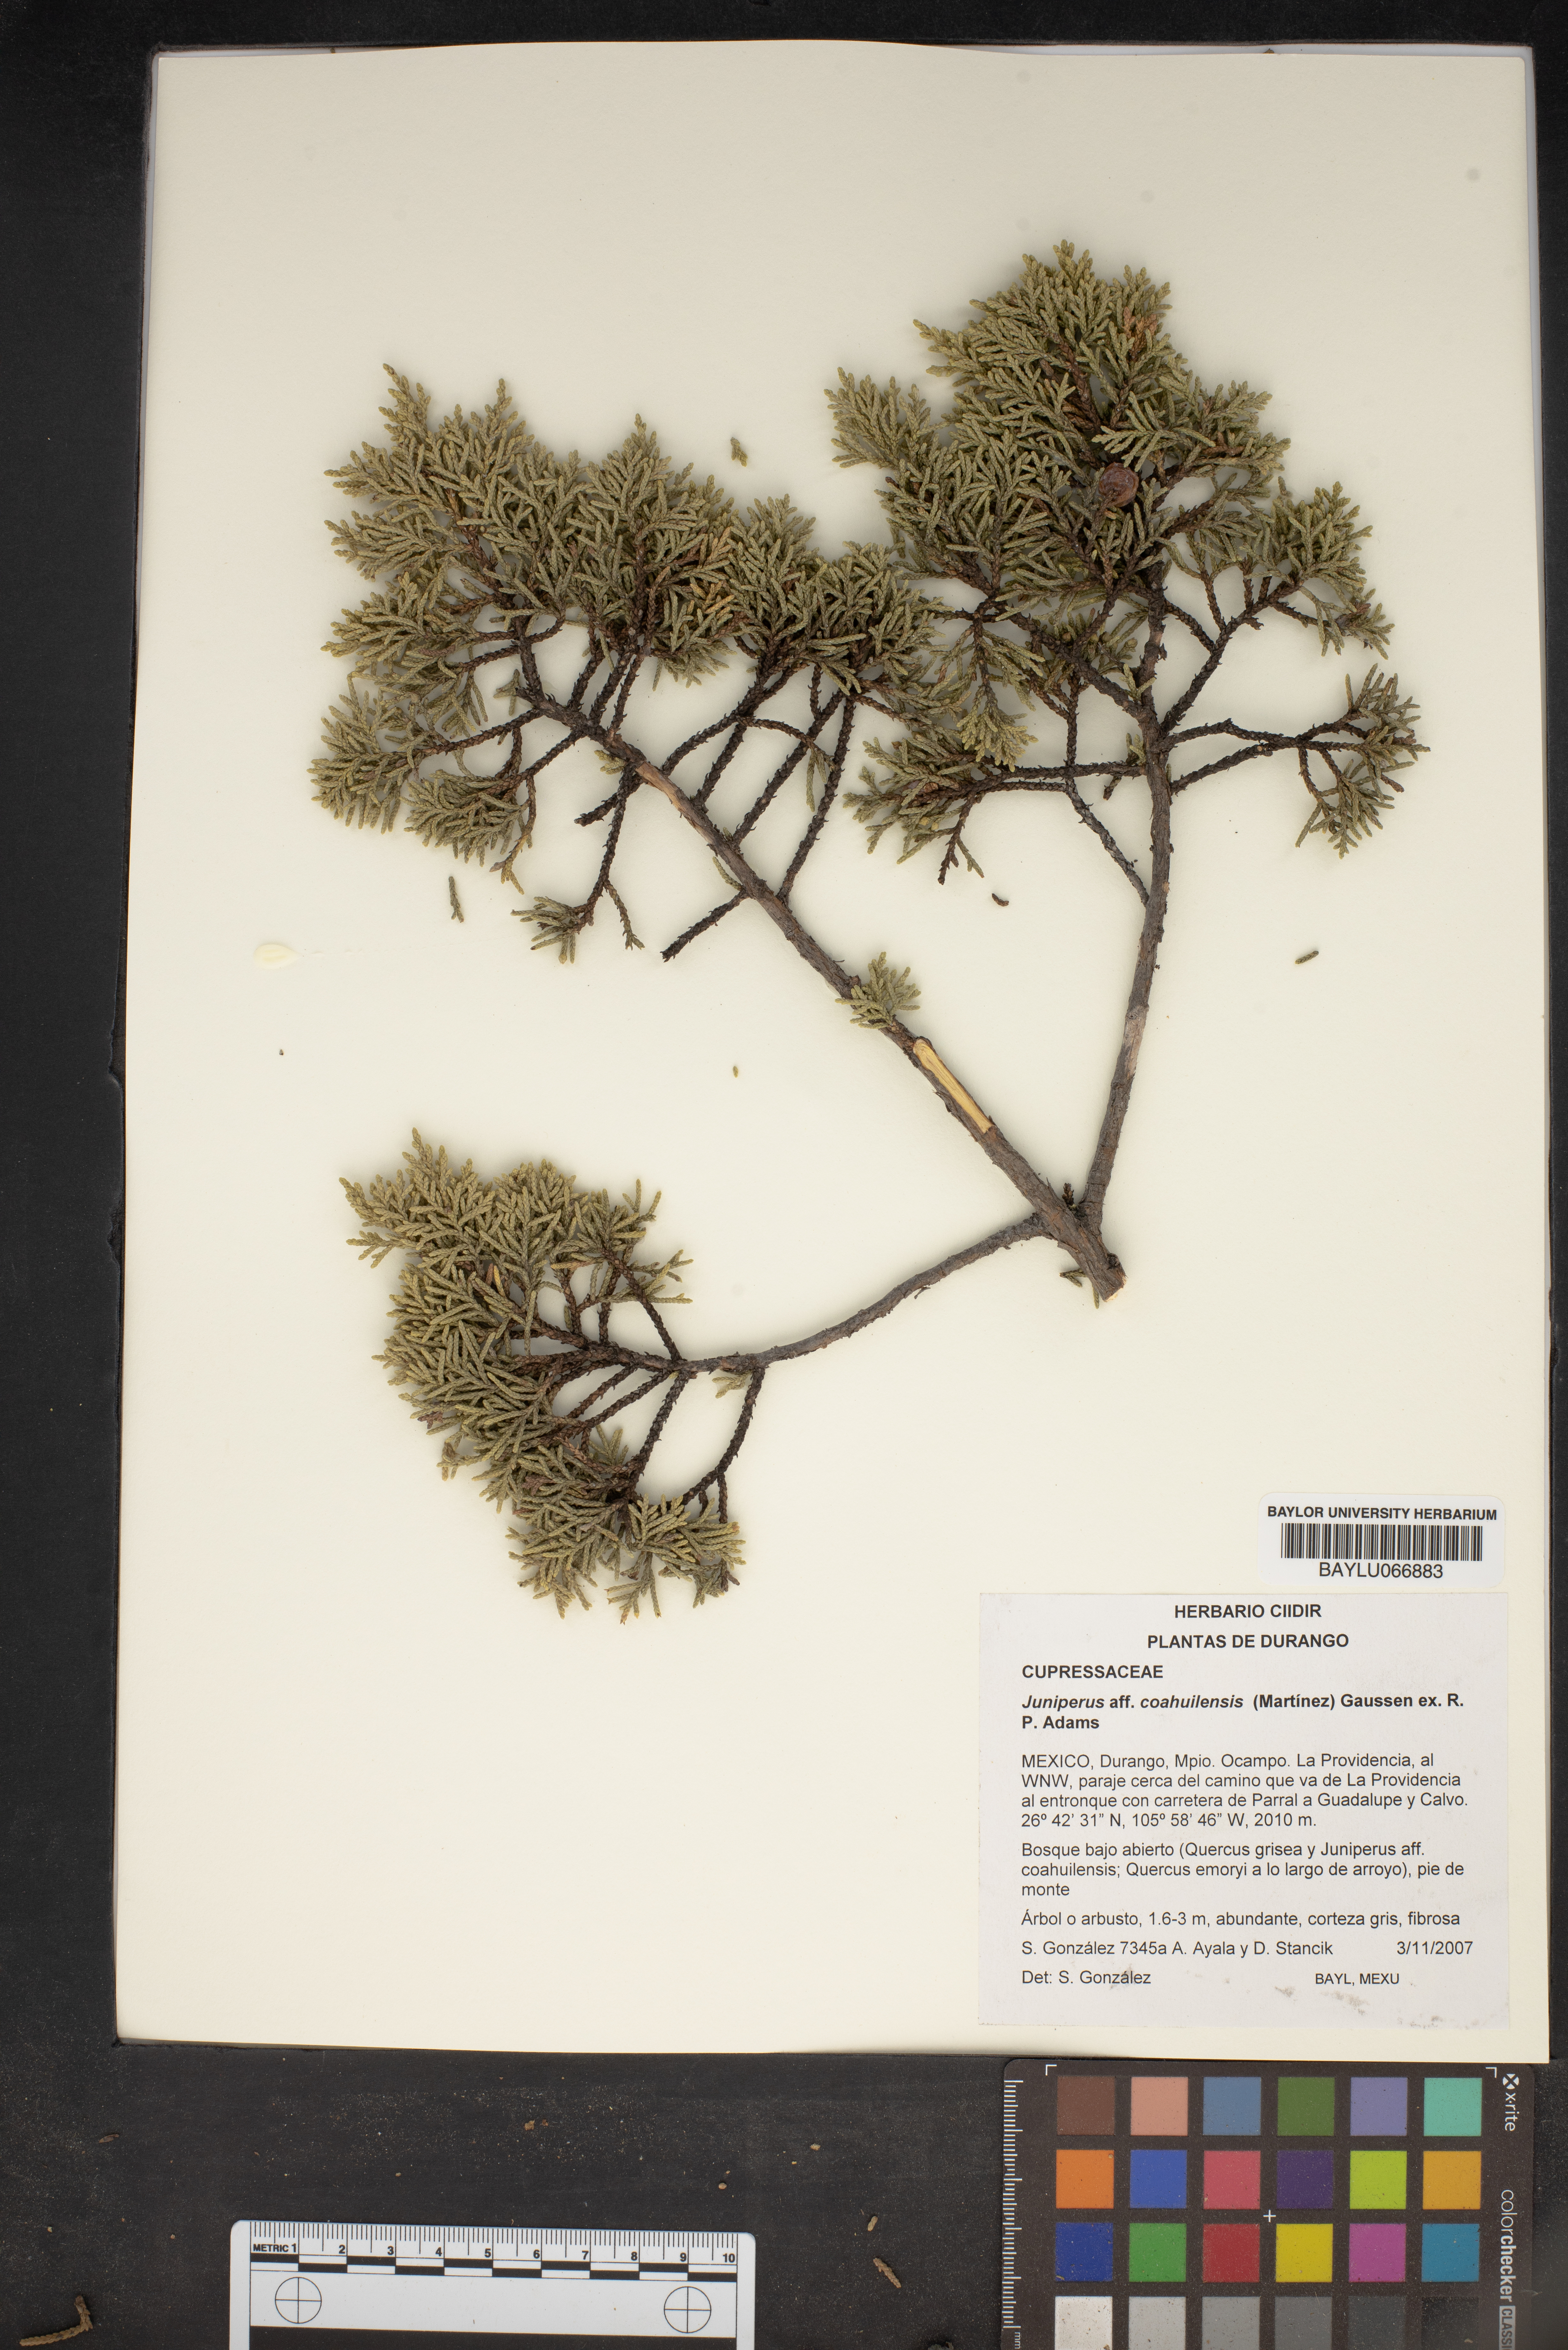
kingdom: Plantae
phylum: Tracheophyta
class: Pinopsida
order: Pinales
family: Cupressaceae
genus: Juniperus
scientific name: Juniperus coahuilensis
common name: Roseberry
